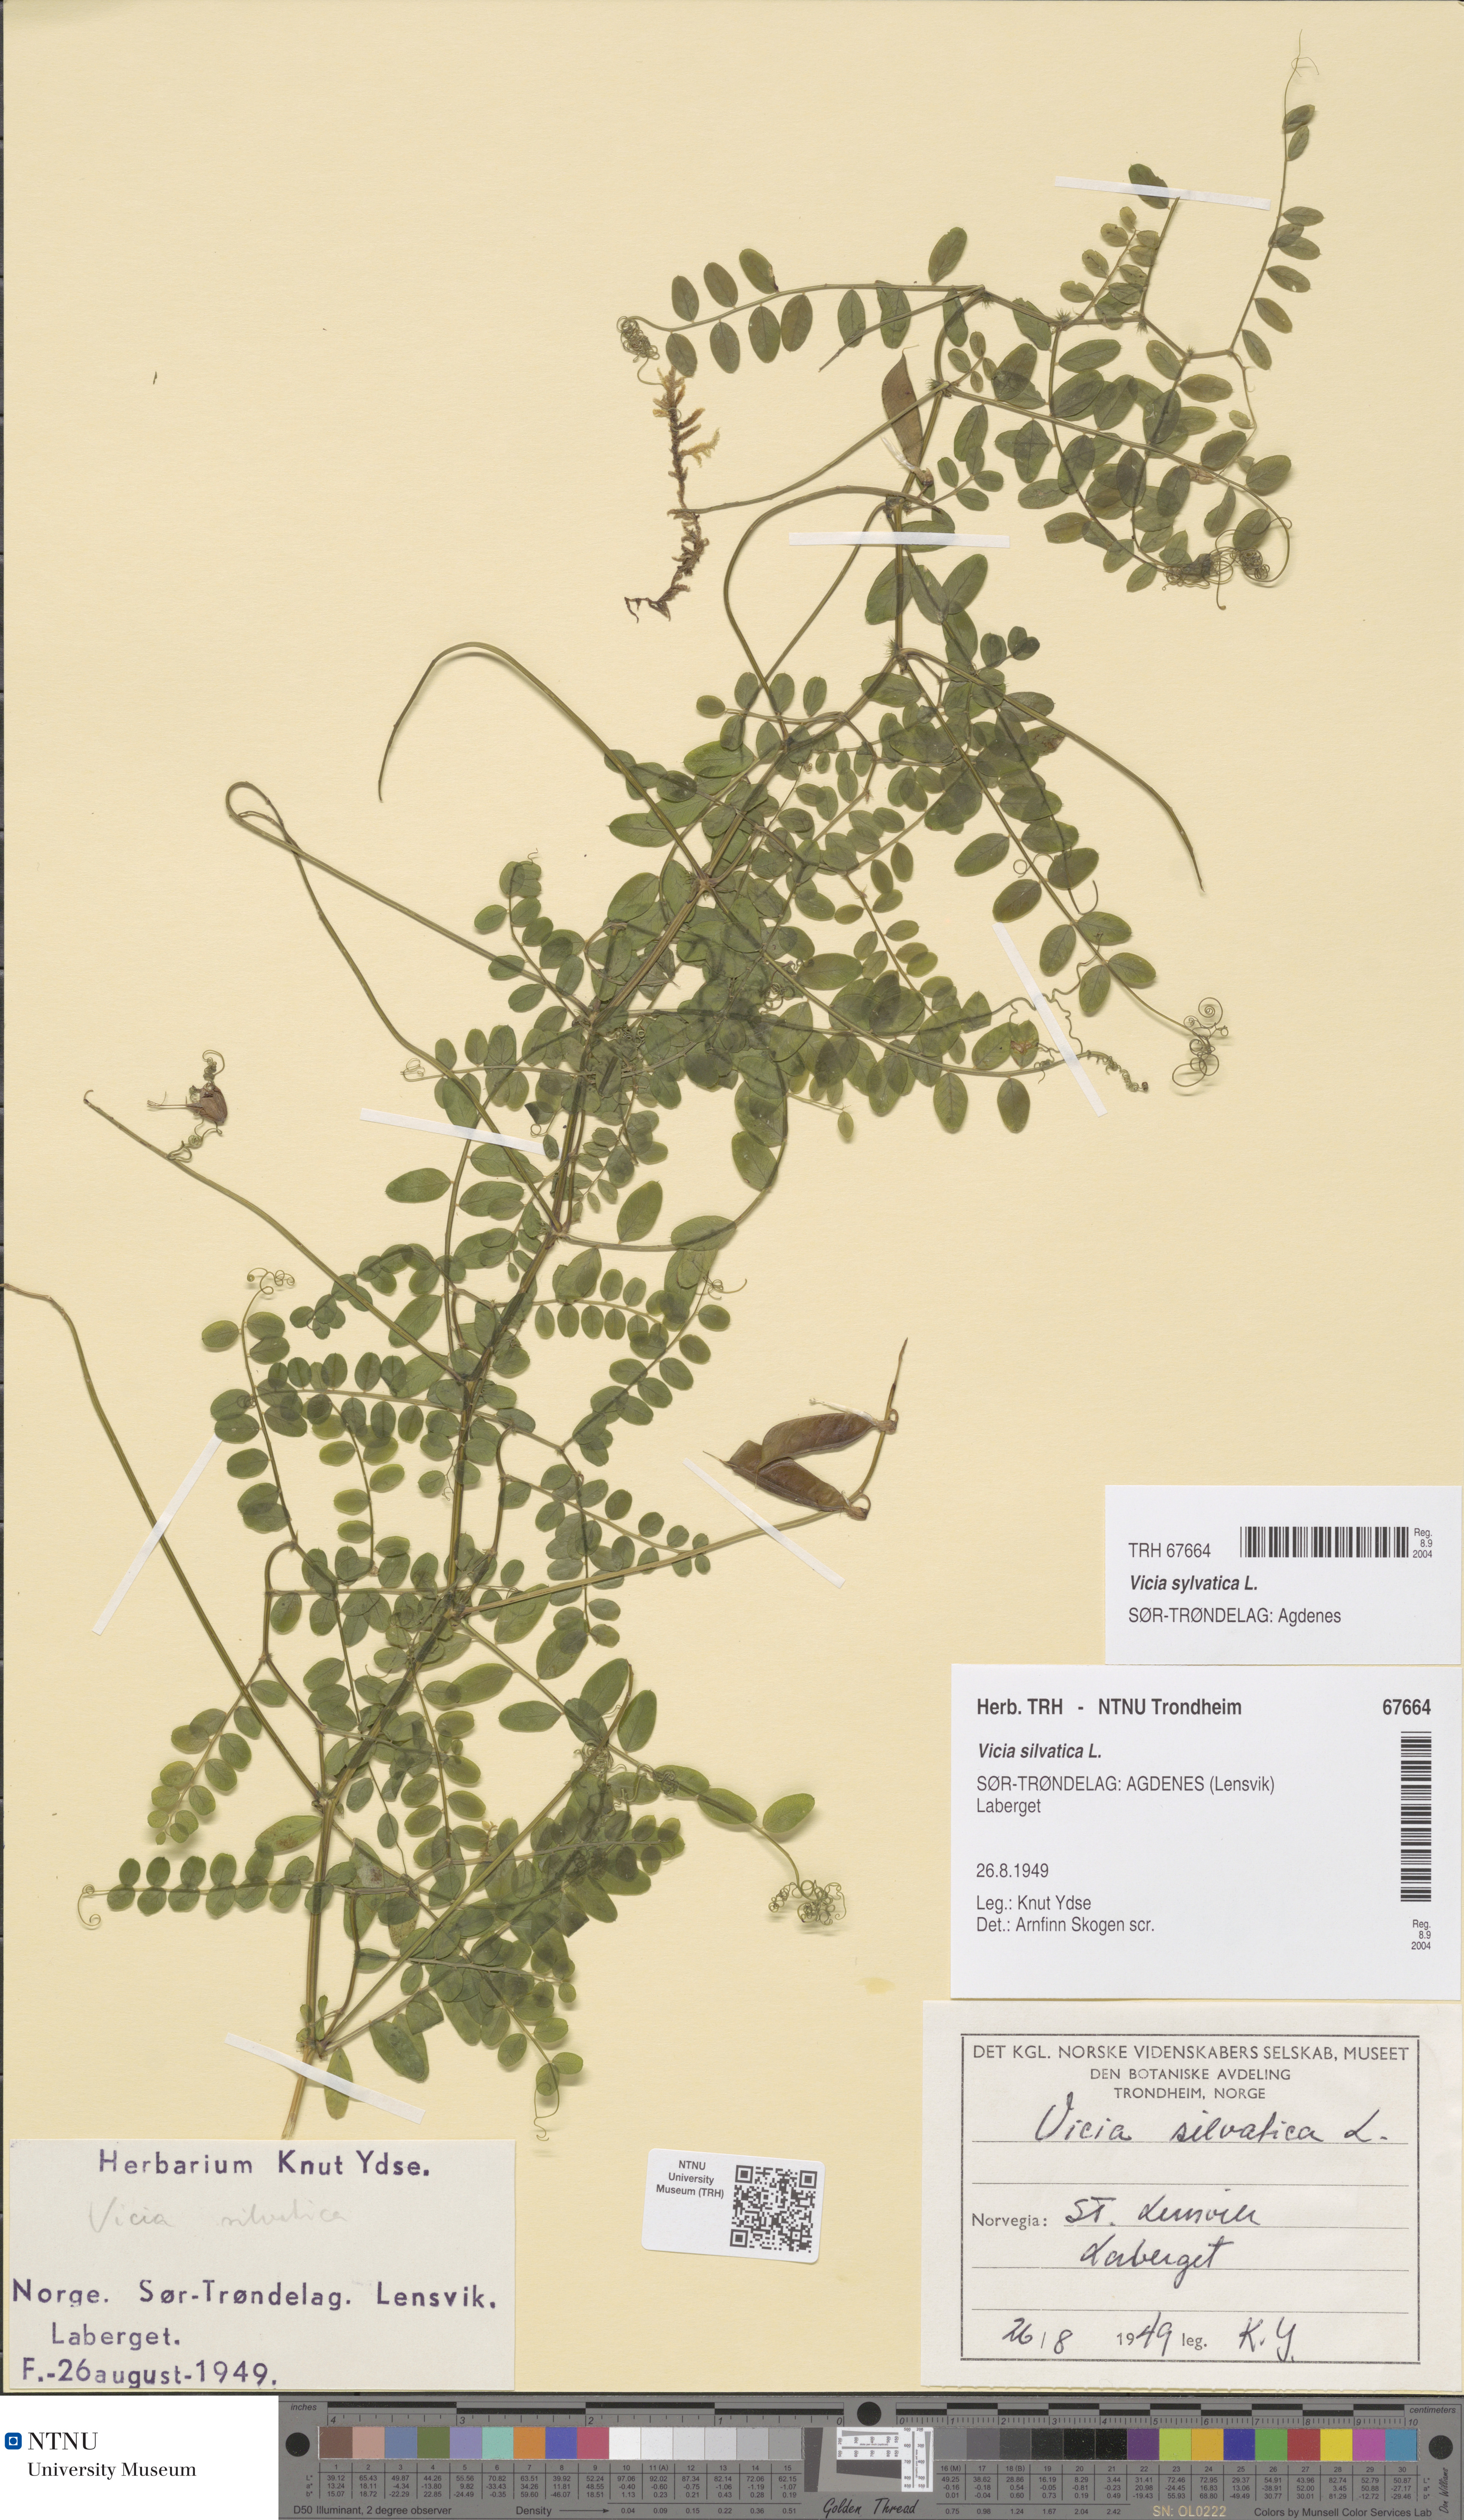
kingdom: Plantae
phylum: Tracheophyta
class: Magnoliopsida
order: Fabales
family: Fabaceae
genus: Vicia
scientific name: Vicia sylvatica
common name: Wood vetch
